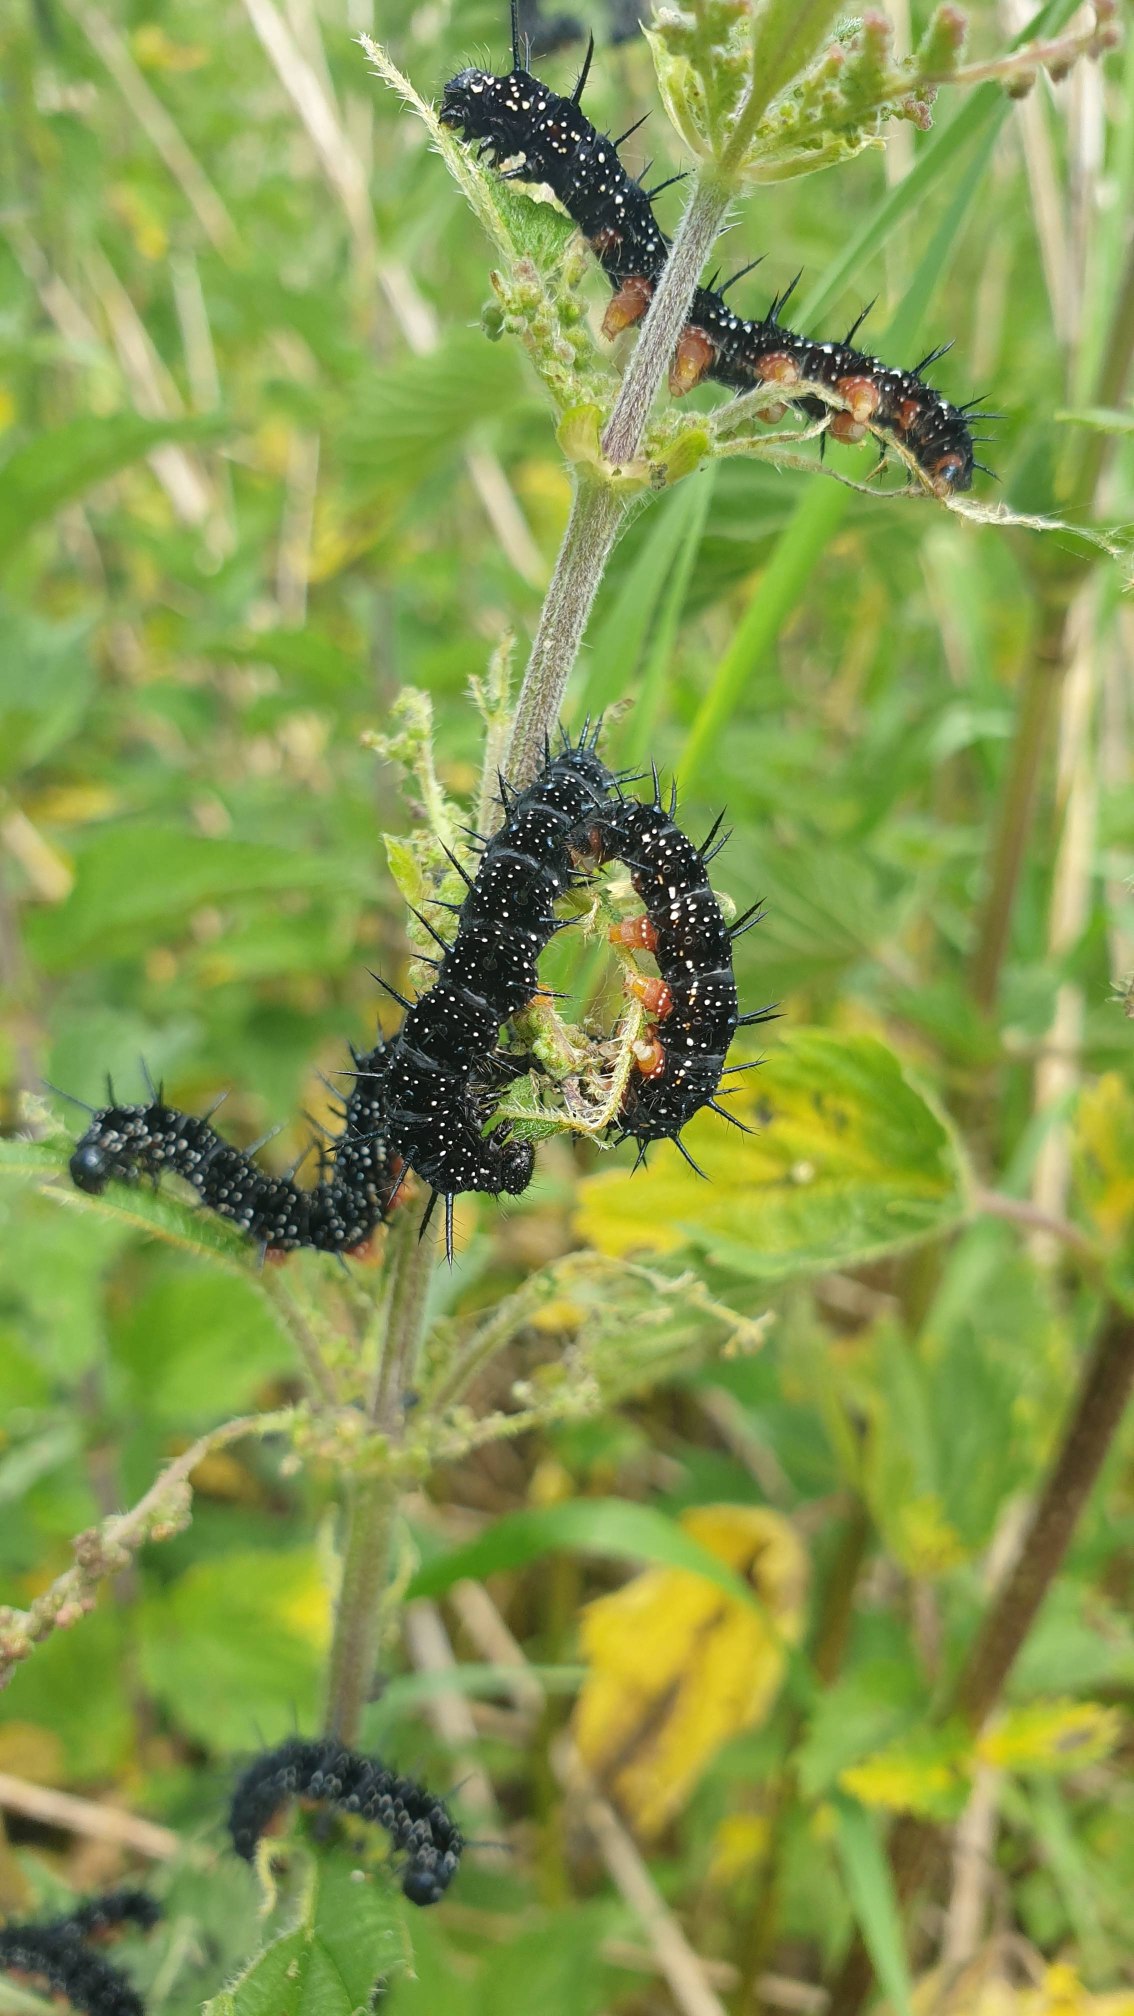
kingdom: Animalia
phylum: Arthropoda
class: Insecta
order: Lepidoptera
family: Nymphalidae
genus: Aglais
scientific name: Aglais io
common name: Dagpåfugleøje
